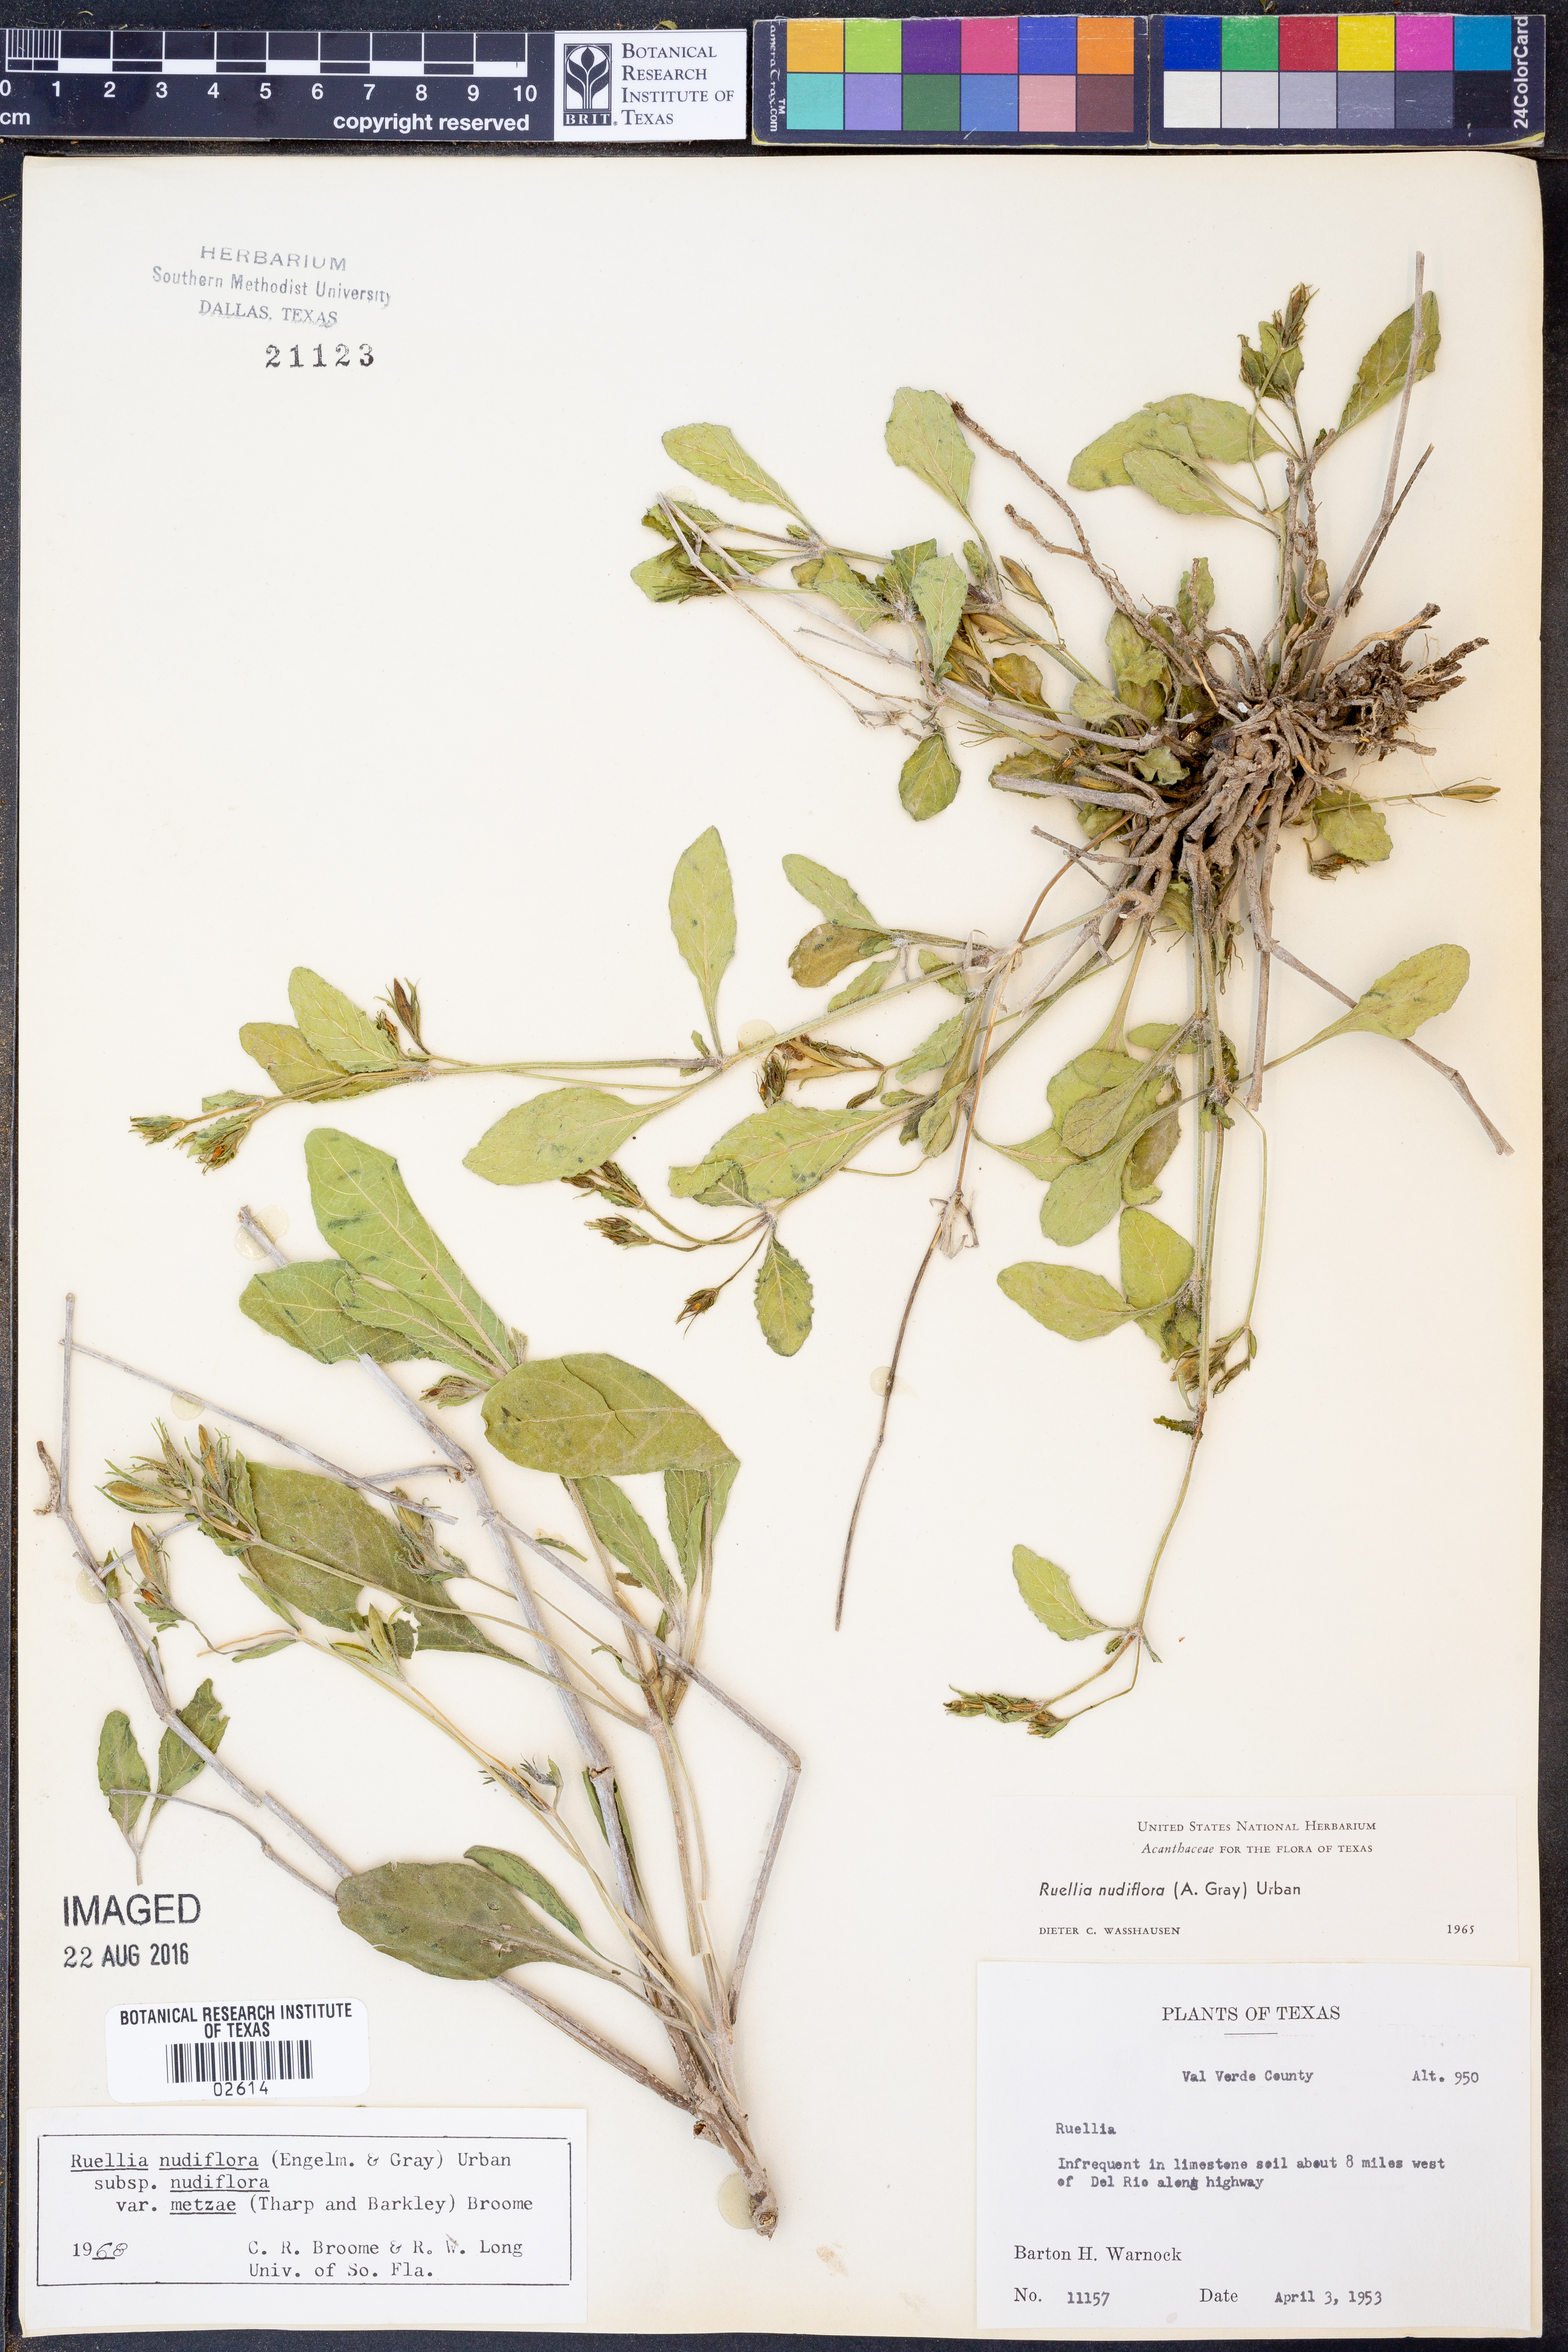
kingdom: Plantae
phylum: Tracheophyta
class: Magnoliopsida
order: Lamiales
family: Acanthaceae
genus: Ruellia
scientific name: Ruellia ciliatiflora
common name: Hairyflower wild petunia
